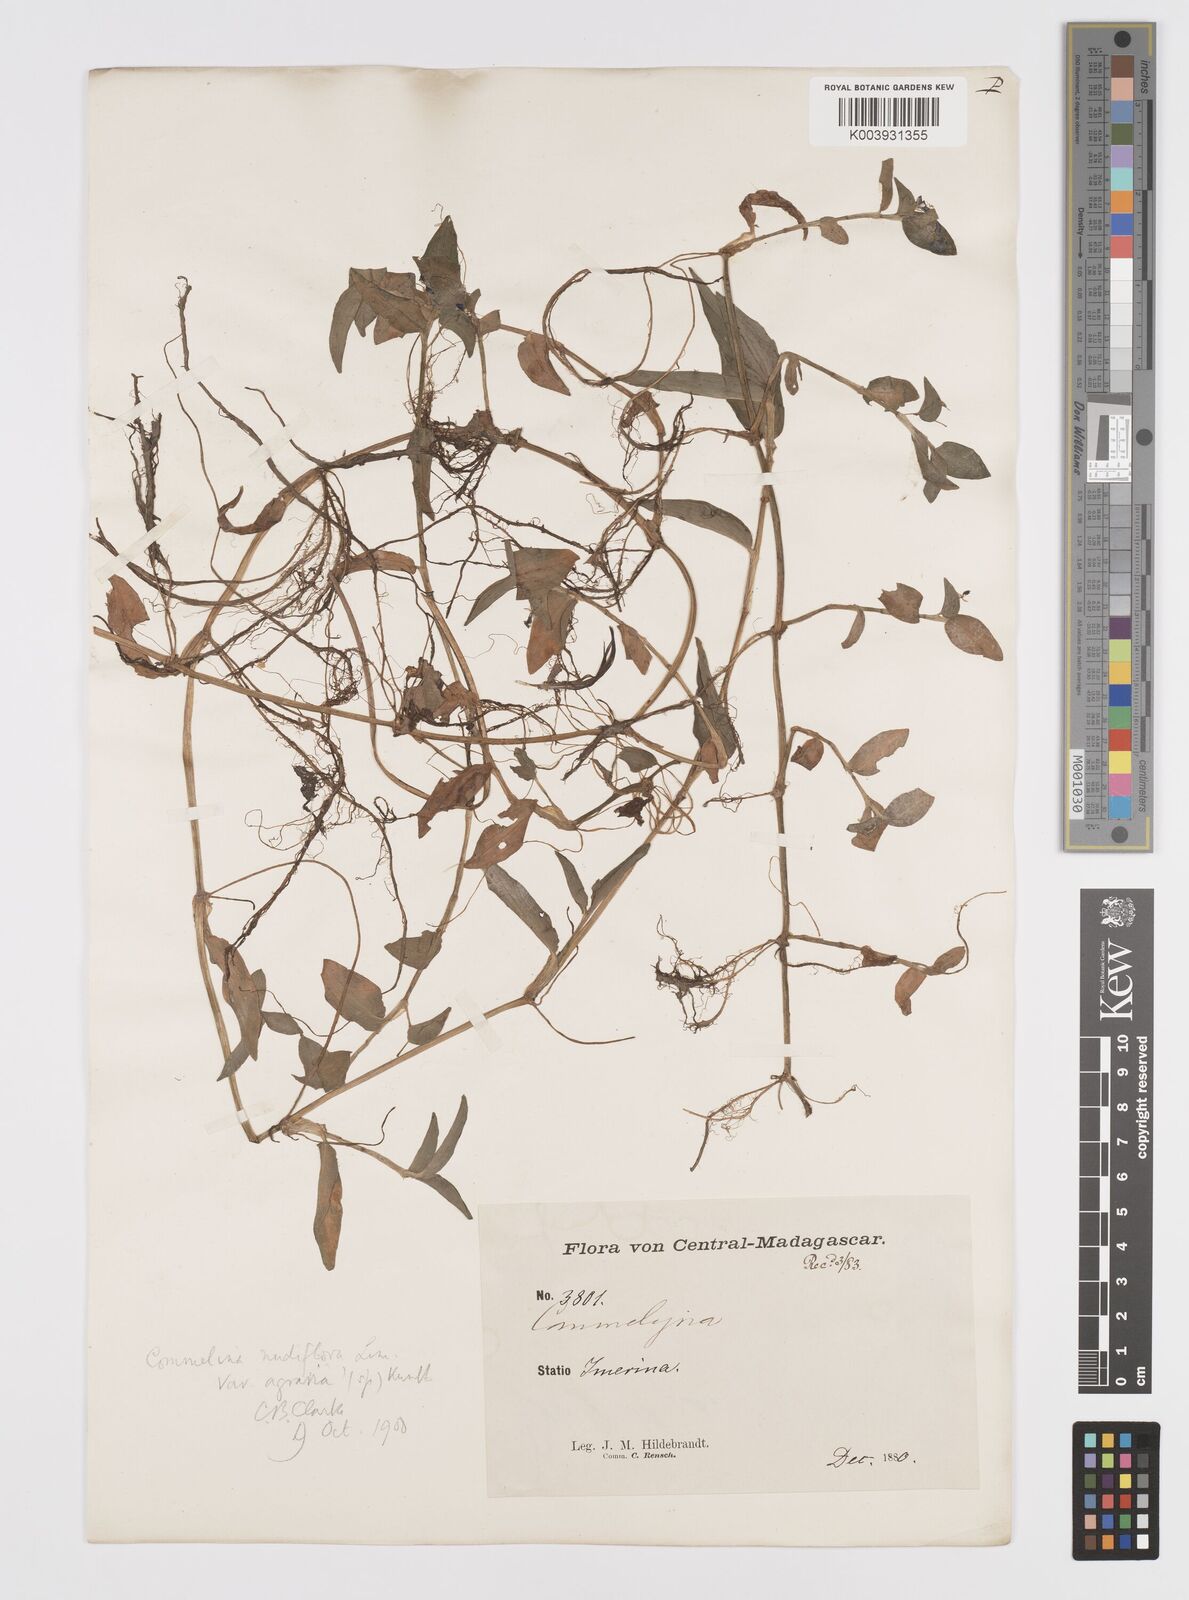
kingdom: Plantae
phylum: Tracheophyta
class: Liliopsida
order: Commelinales
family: Commelinaceae
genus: Murdannia
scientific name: Murdannia nudiflora
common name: Nakedstem dewflower
